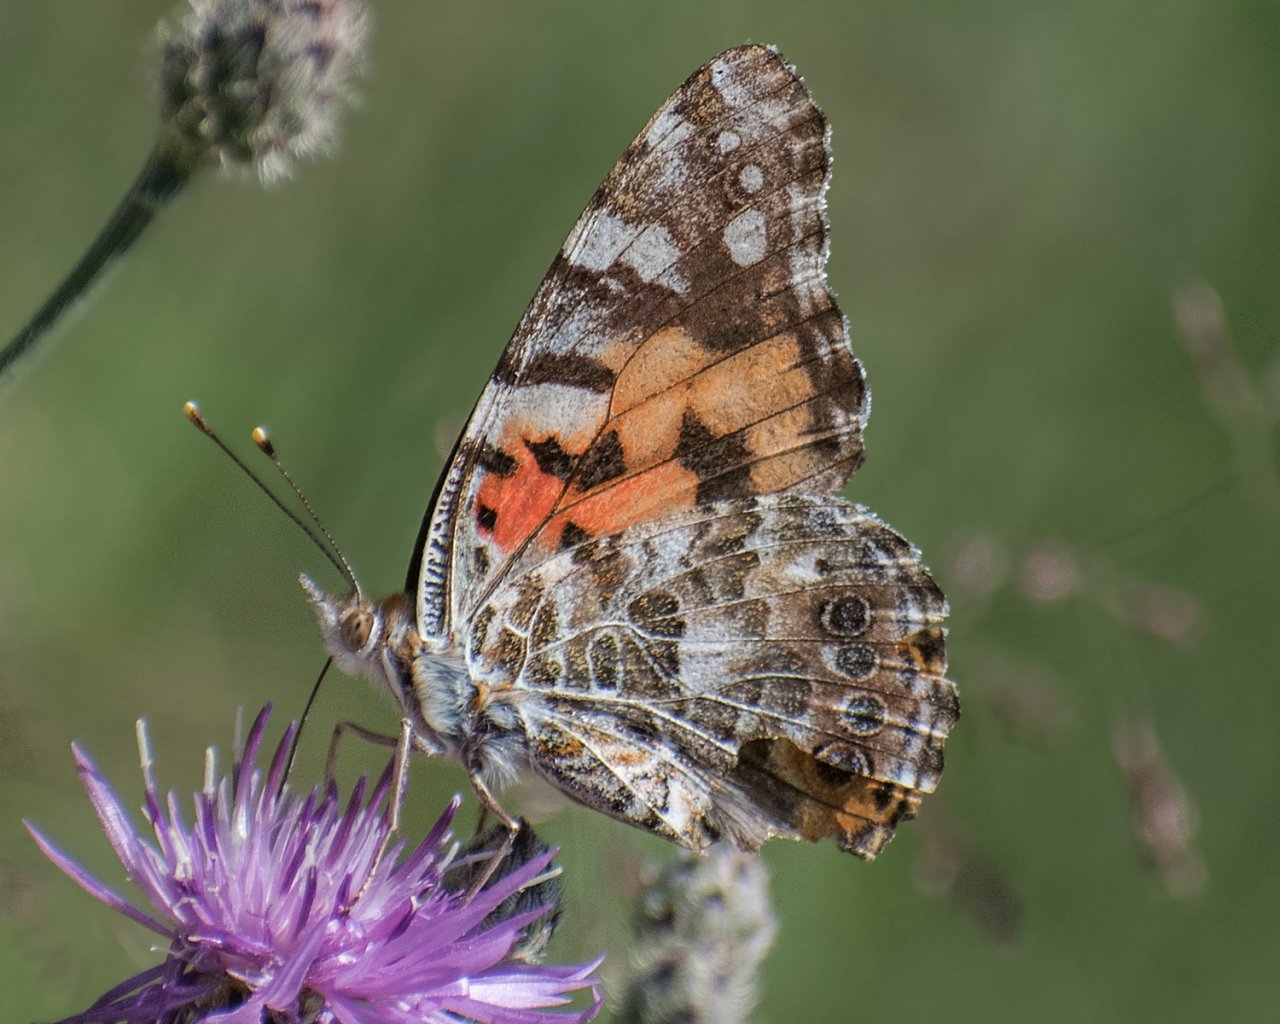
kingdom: Animalia
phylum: Arthropoda
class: Insecta
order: Lepidoptera
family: Nymphalidae
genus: Vanessa
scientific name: Vanessa cardui
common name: Painted Lady
